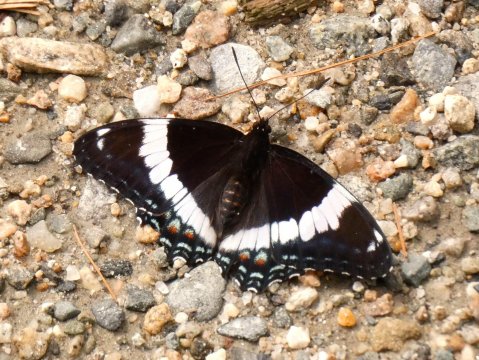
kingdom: Animalia
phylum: Arthropoda
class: Insecta
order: Lepidoptera
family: Nymphalidae
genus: Limenitis
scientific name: Limenitis arthemis
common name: Red-spotted Admiral
